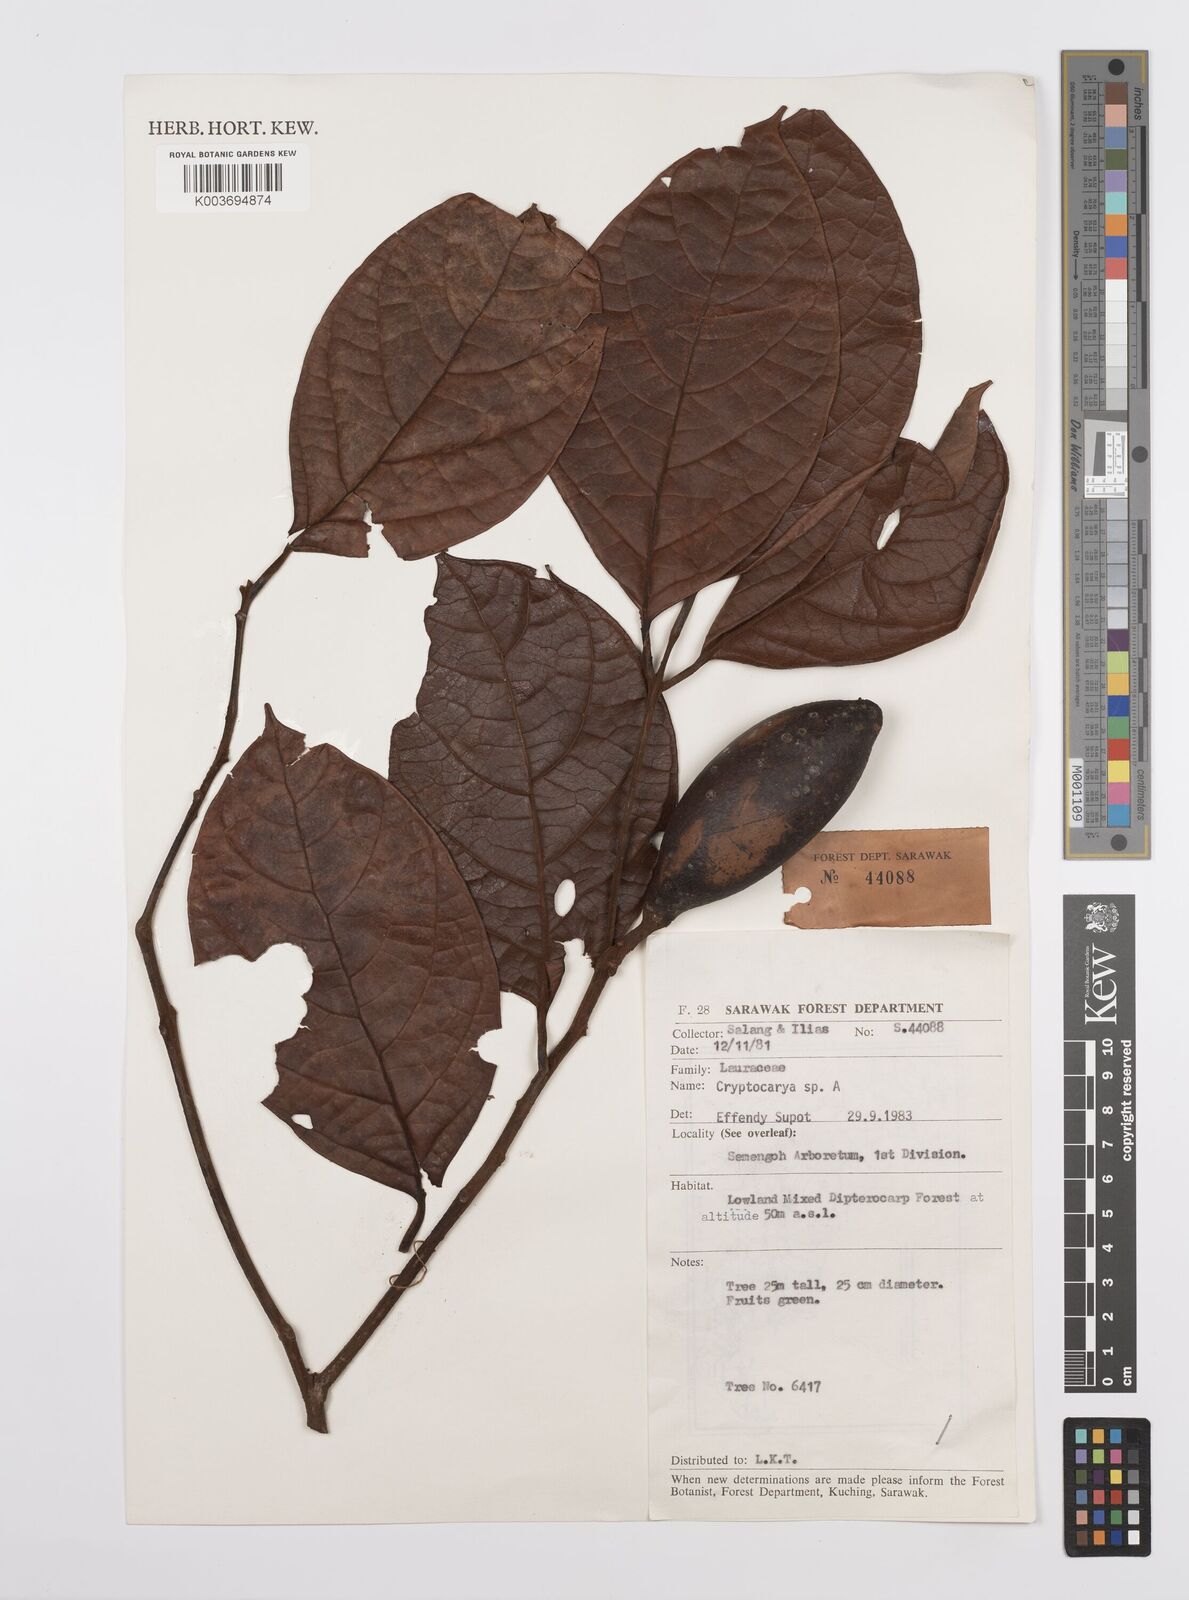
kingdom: Plantae
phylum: Tracheophyta
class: Magnoliopsida
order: Laurales
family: Lauraceae
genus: Cryptocarya
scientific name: Cryptocarya
